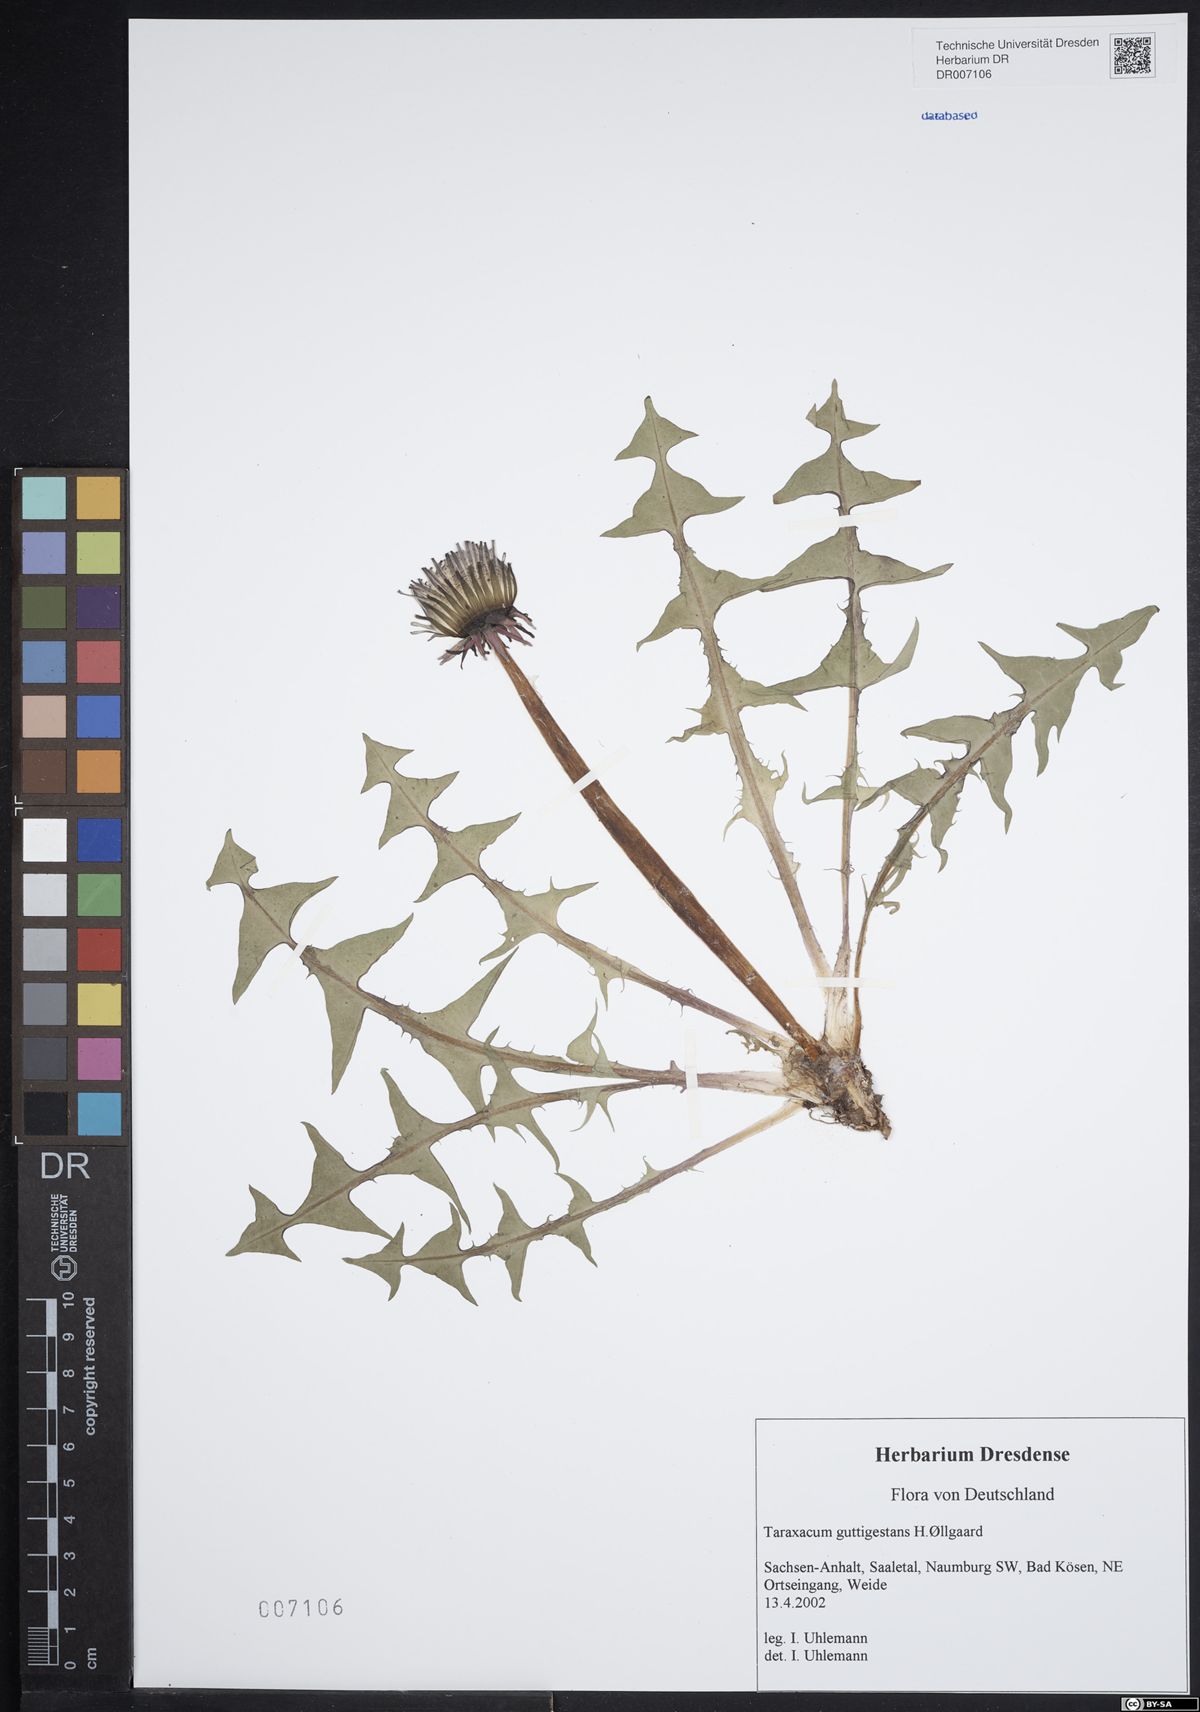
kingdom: Plantae
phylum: Tracheophyta
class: Magnoliopsida
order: Asterales
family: Asteraceae
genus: Taraxacum
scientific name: Taraxacum guttigestans
